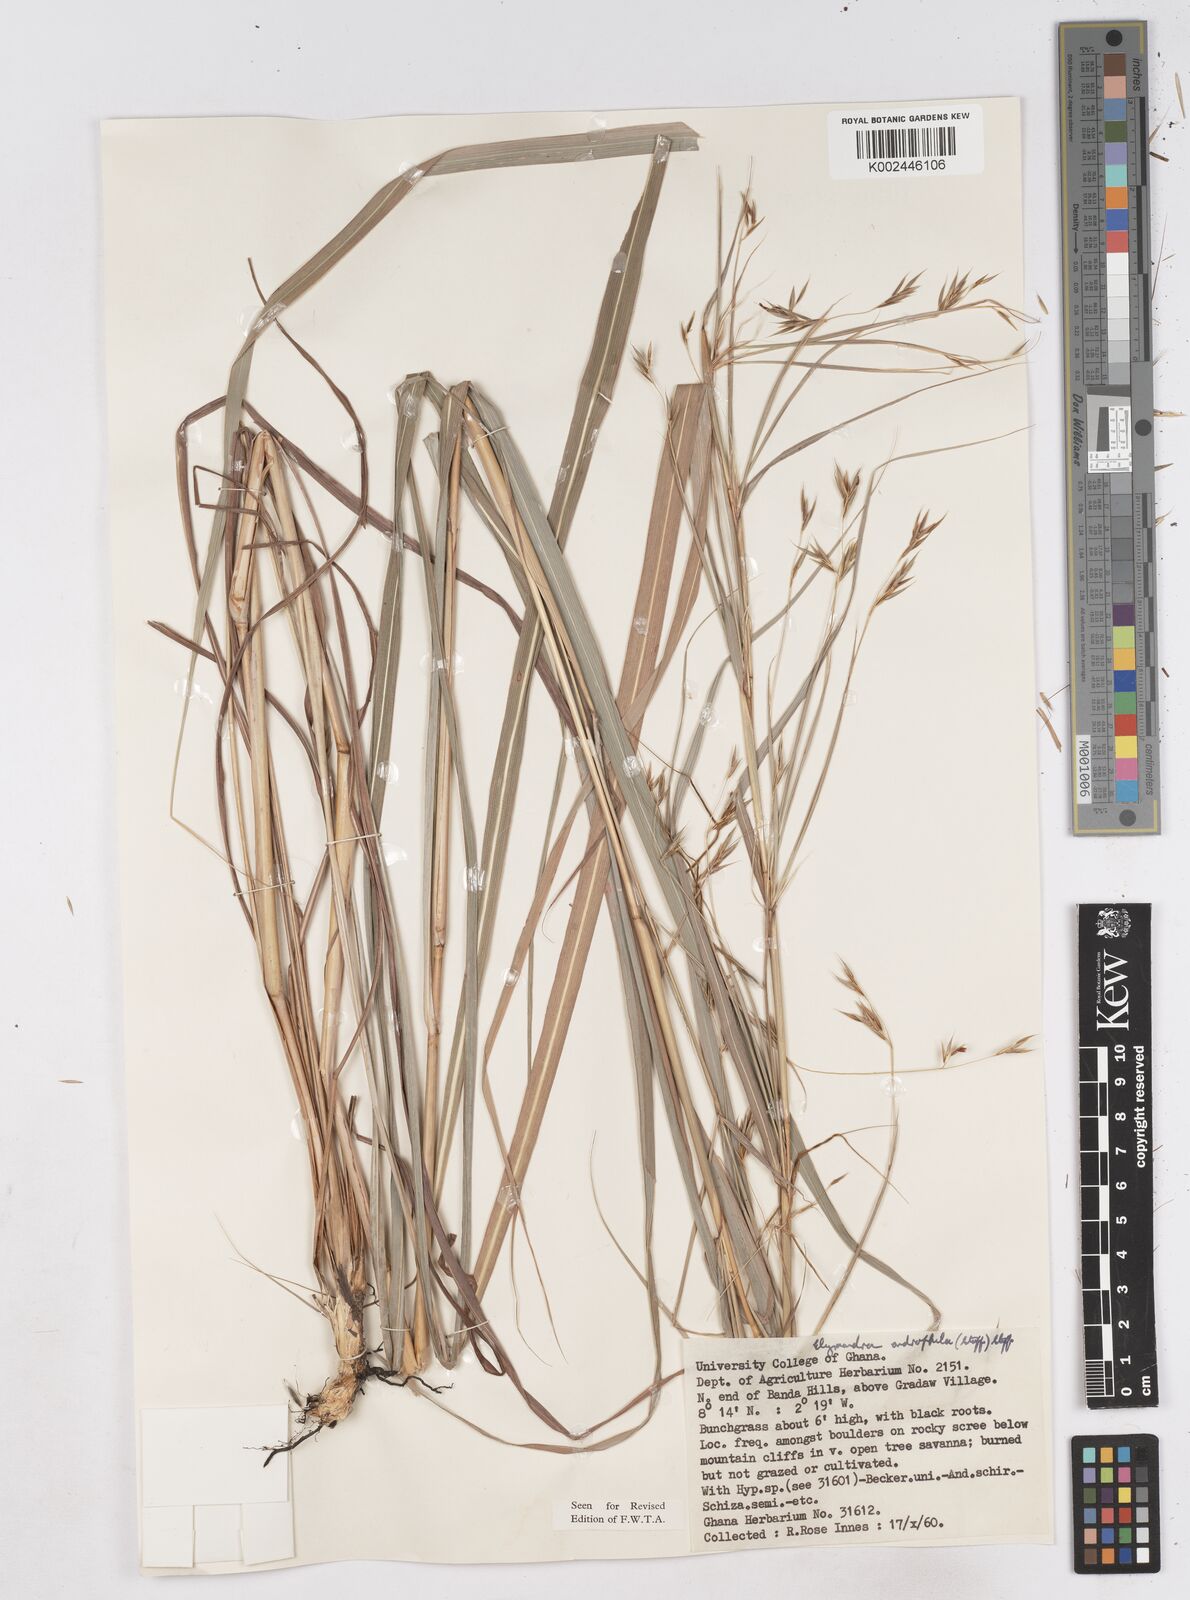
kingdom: Plantae
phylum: Tracheophyta
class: Liliopsida
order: Poales
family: Poaceae
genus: Elymandra
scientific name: Elymandra androphila
